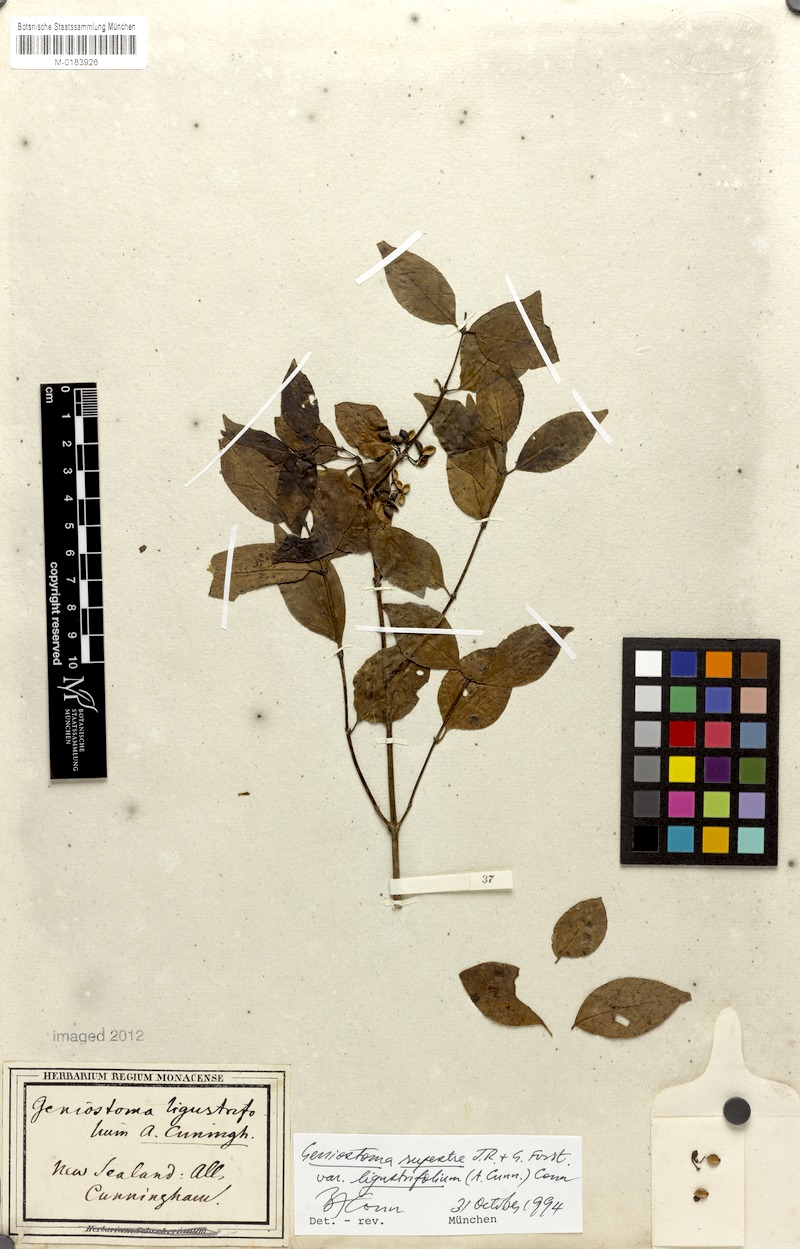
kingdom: Plantae
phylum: Tracheophyta
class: Magnoliopsida
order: Gentianales
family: Loganiaceae
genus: Geniostoma
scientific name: Geniostoma ligustrifolium
